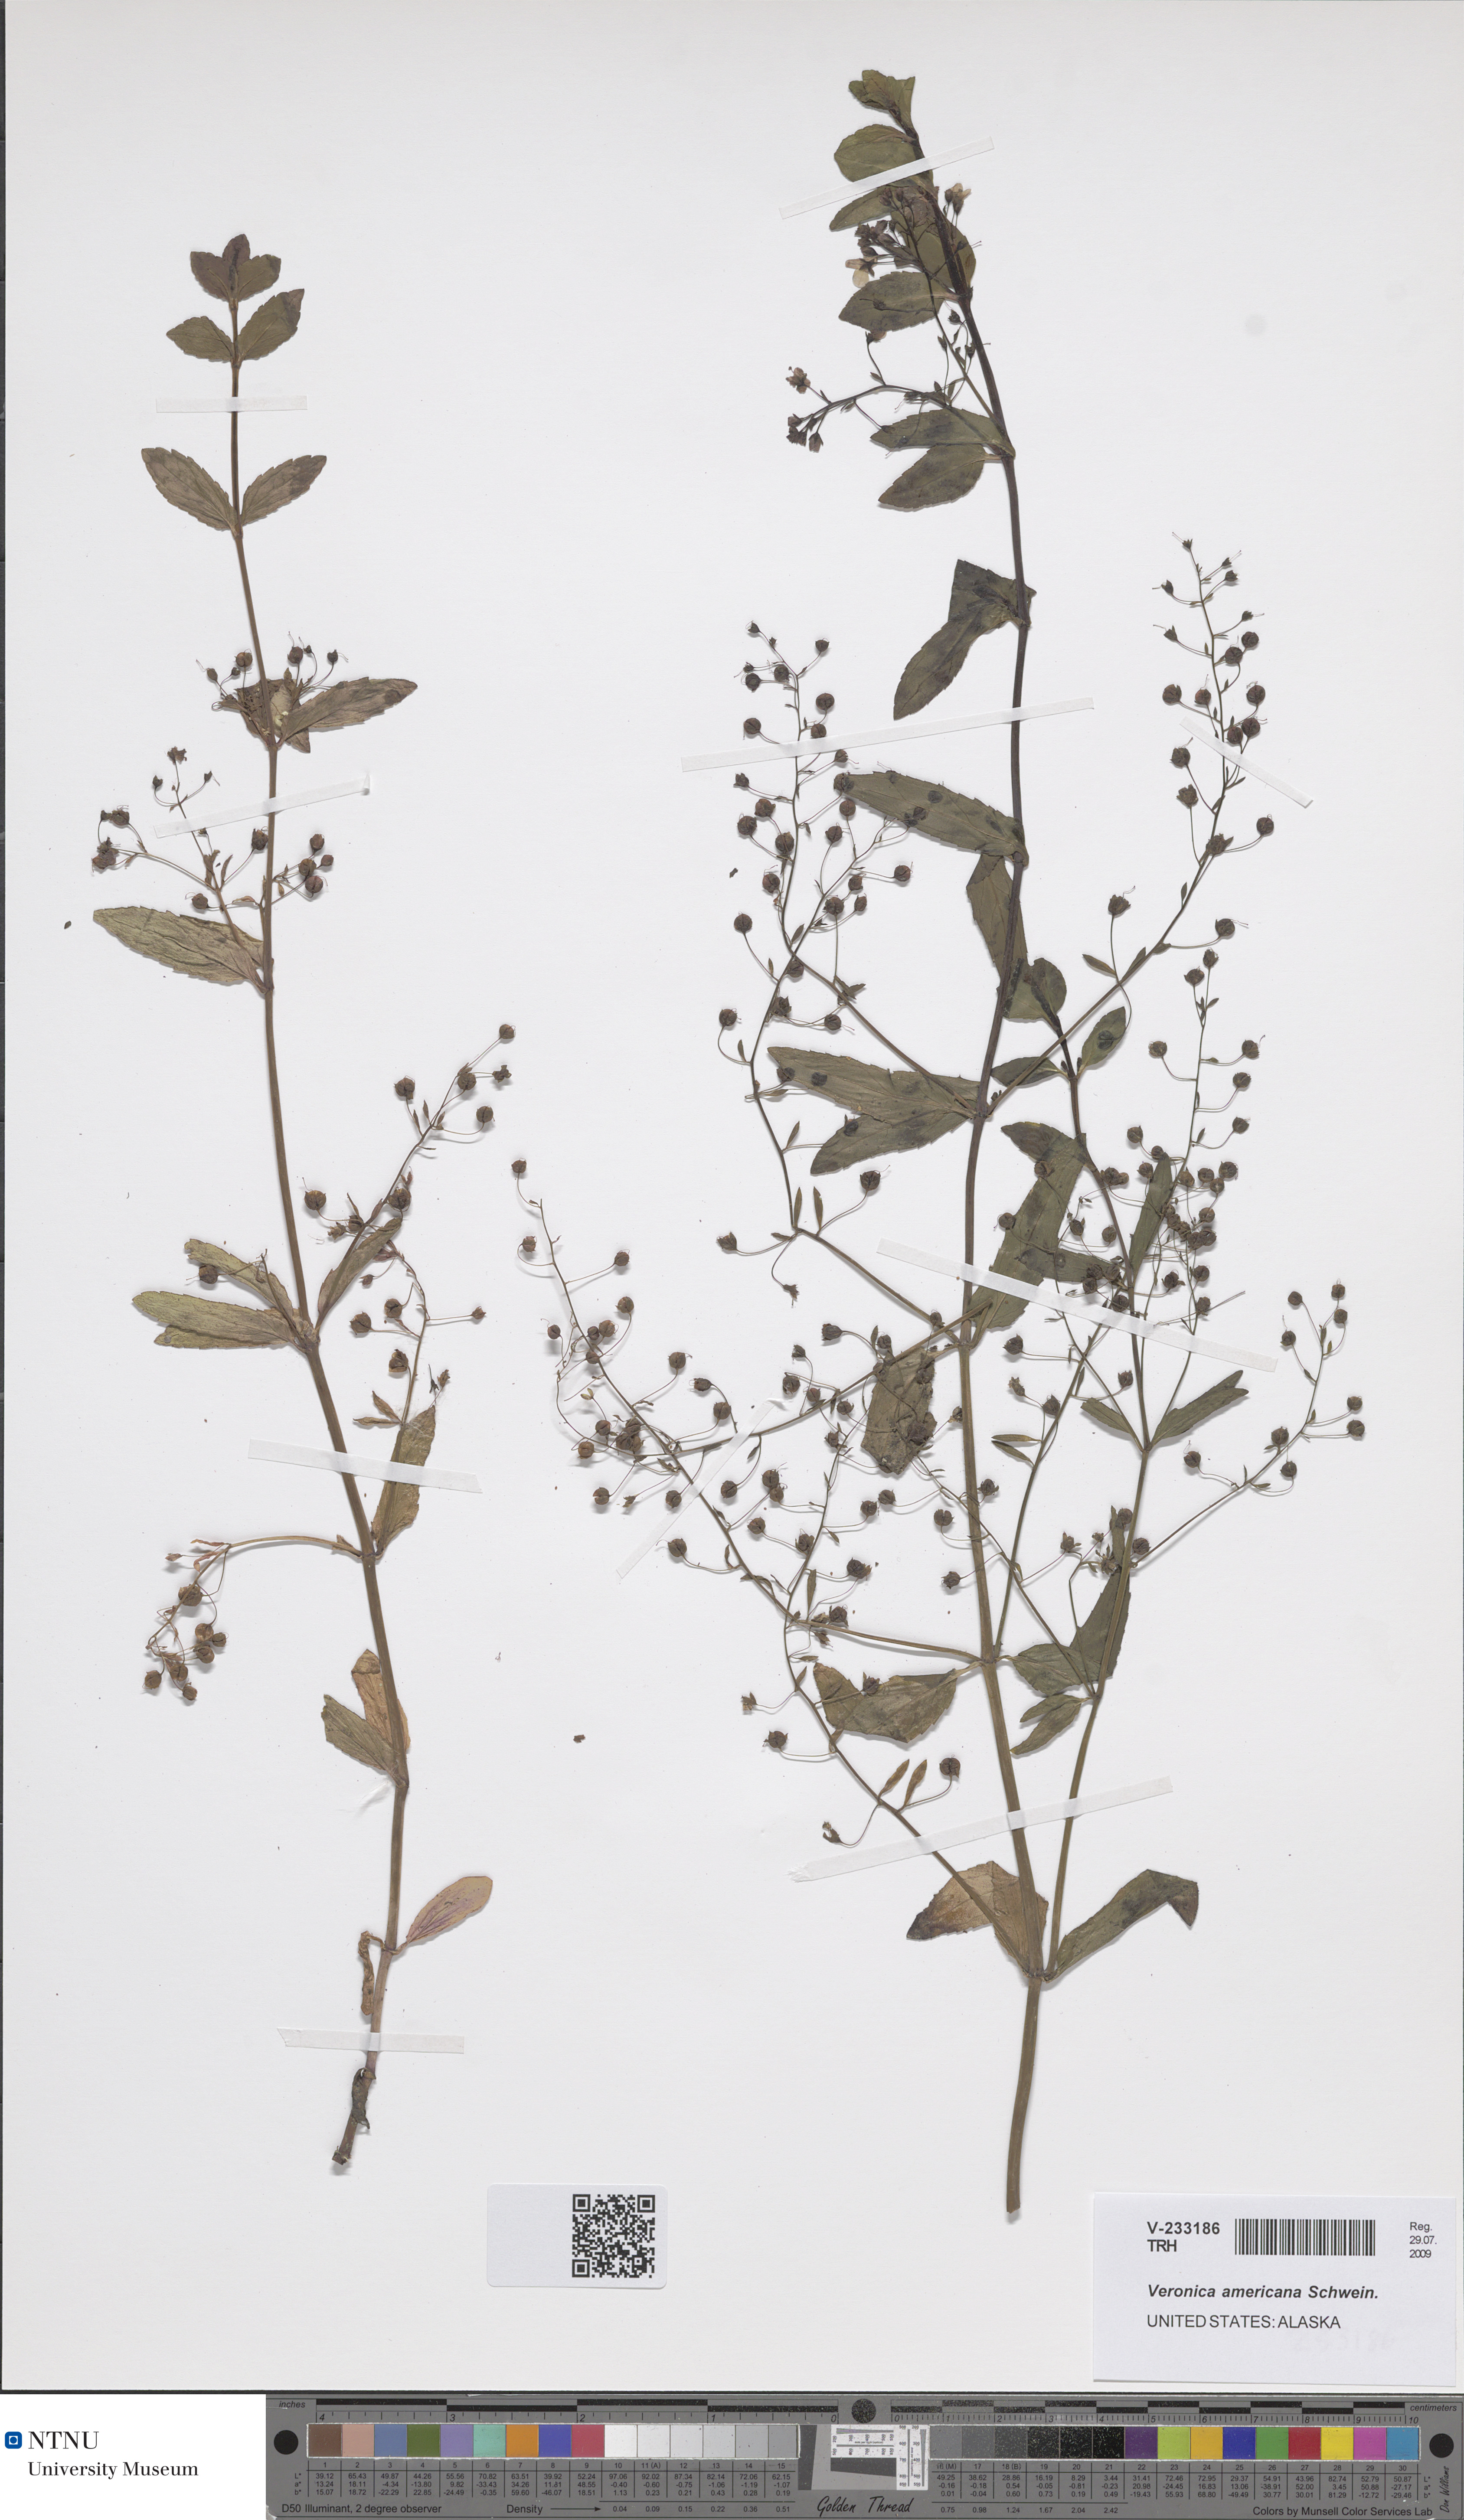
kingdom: Plantae
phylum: Tracheophyta
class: Magnoliopsida
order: Lamiales
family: Plantaginaceae
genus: Veronica
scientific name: Veronica americana
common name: American brooklime
